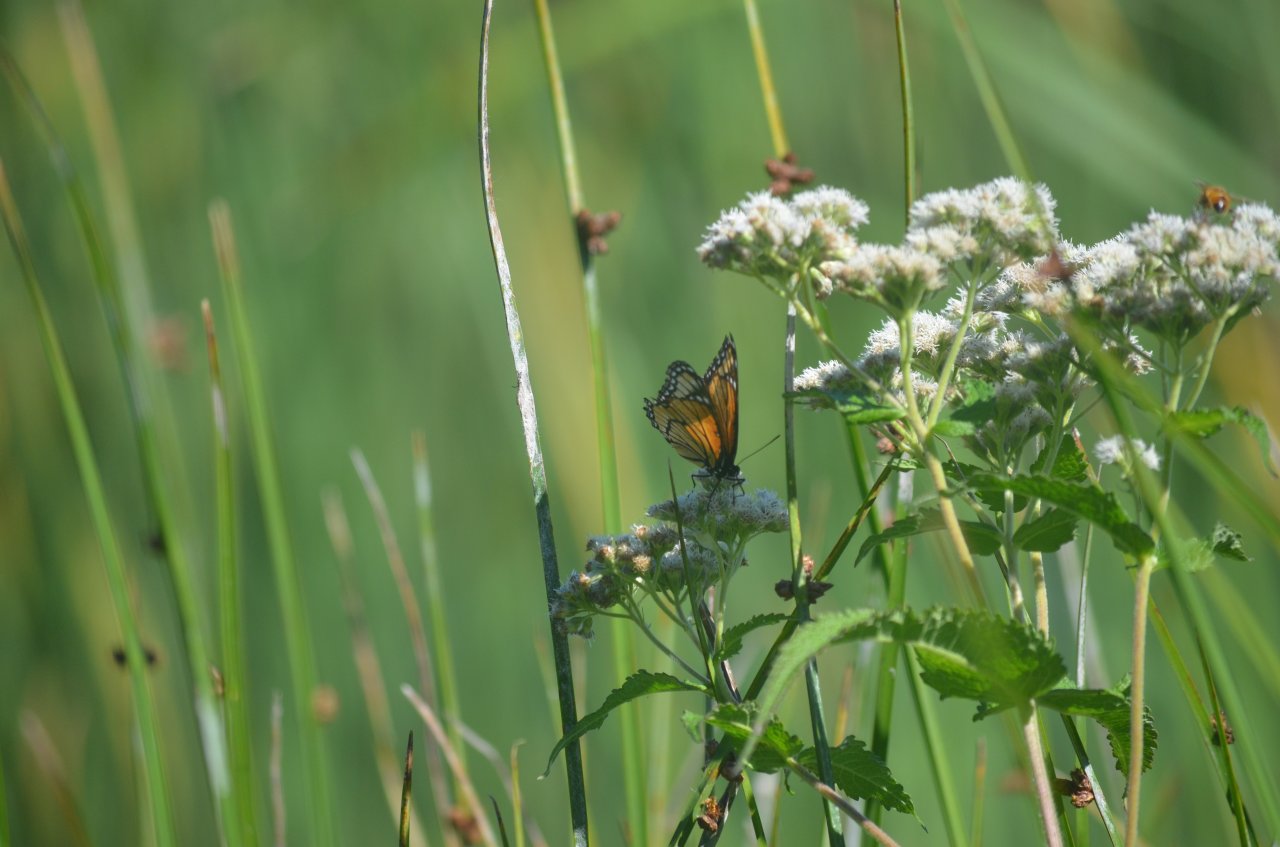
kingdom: Animalia
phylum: Arthropoda
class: Insecta
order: Lepidoptera
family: Nymphalidae
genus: Limenitis
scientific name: Limenitis archippus
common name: Viceroy
